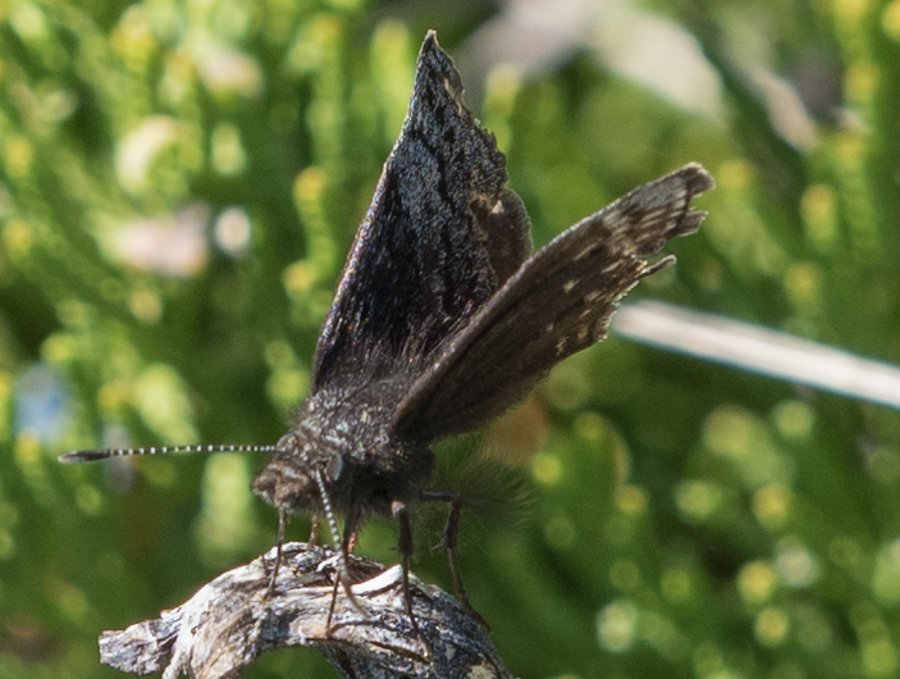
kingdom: Animalia
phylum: Arthropoda
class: Insecta
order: Lepidoptera
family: Hesperiidae
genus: Erynnis
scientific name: Erynnis icelus
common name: Dreamy Duskywing
